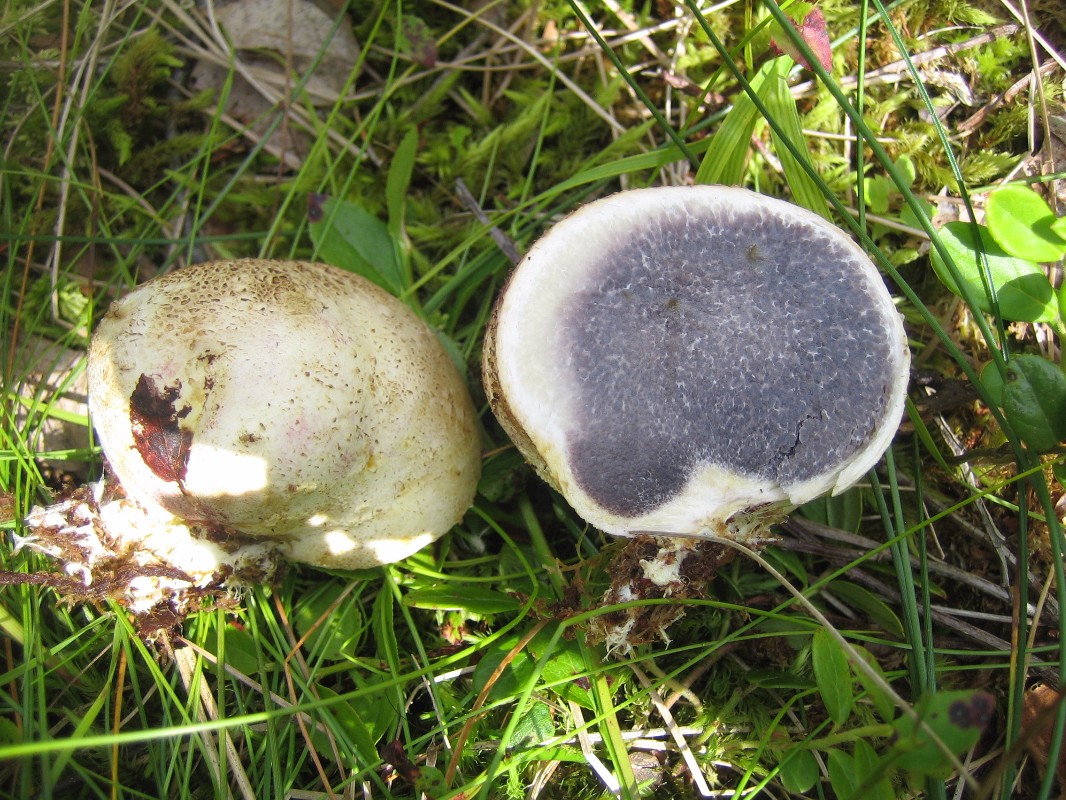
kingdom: Fungi
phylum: Basidiomycota
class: Agaricomycetes
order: Boletales
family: Sclerodermataceae
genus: Scleroderma
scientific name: Scleroderma citrinum
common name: almindelig bruskbold
